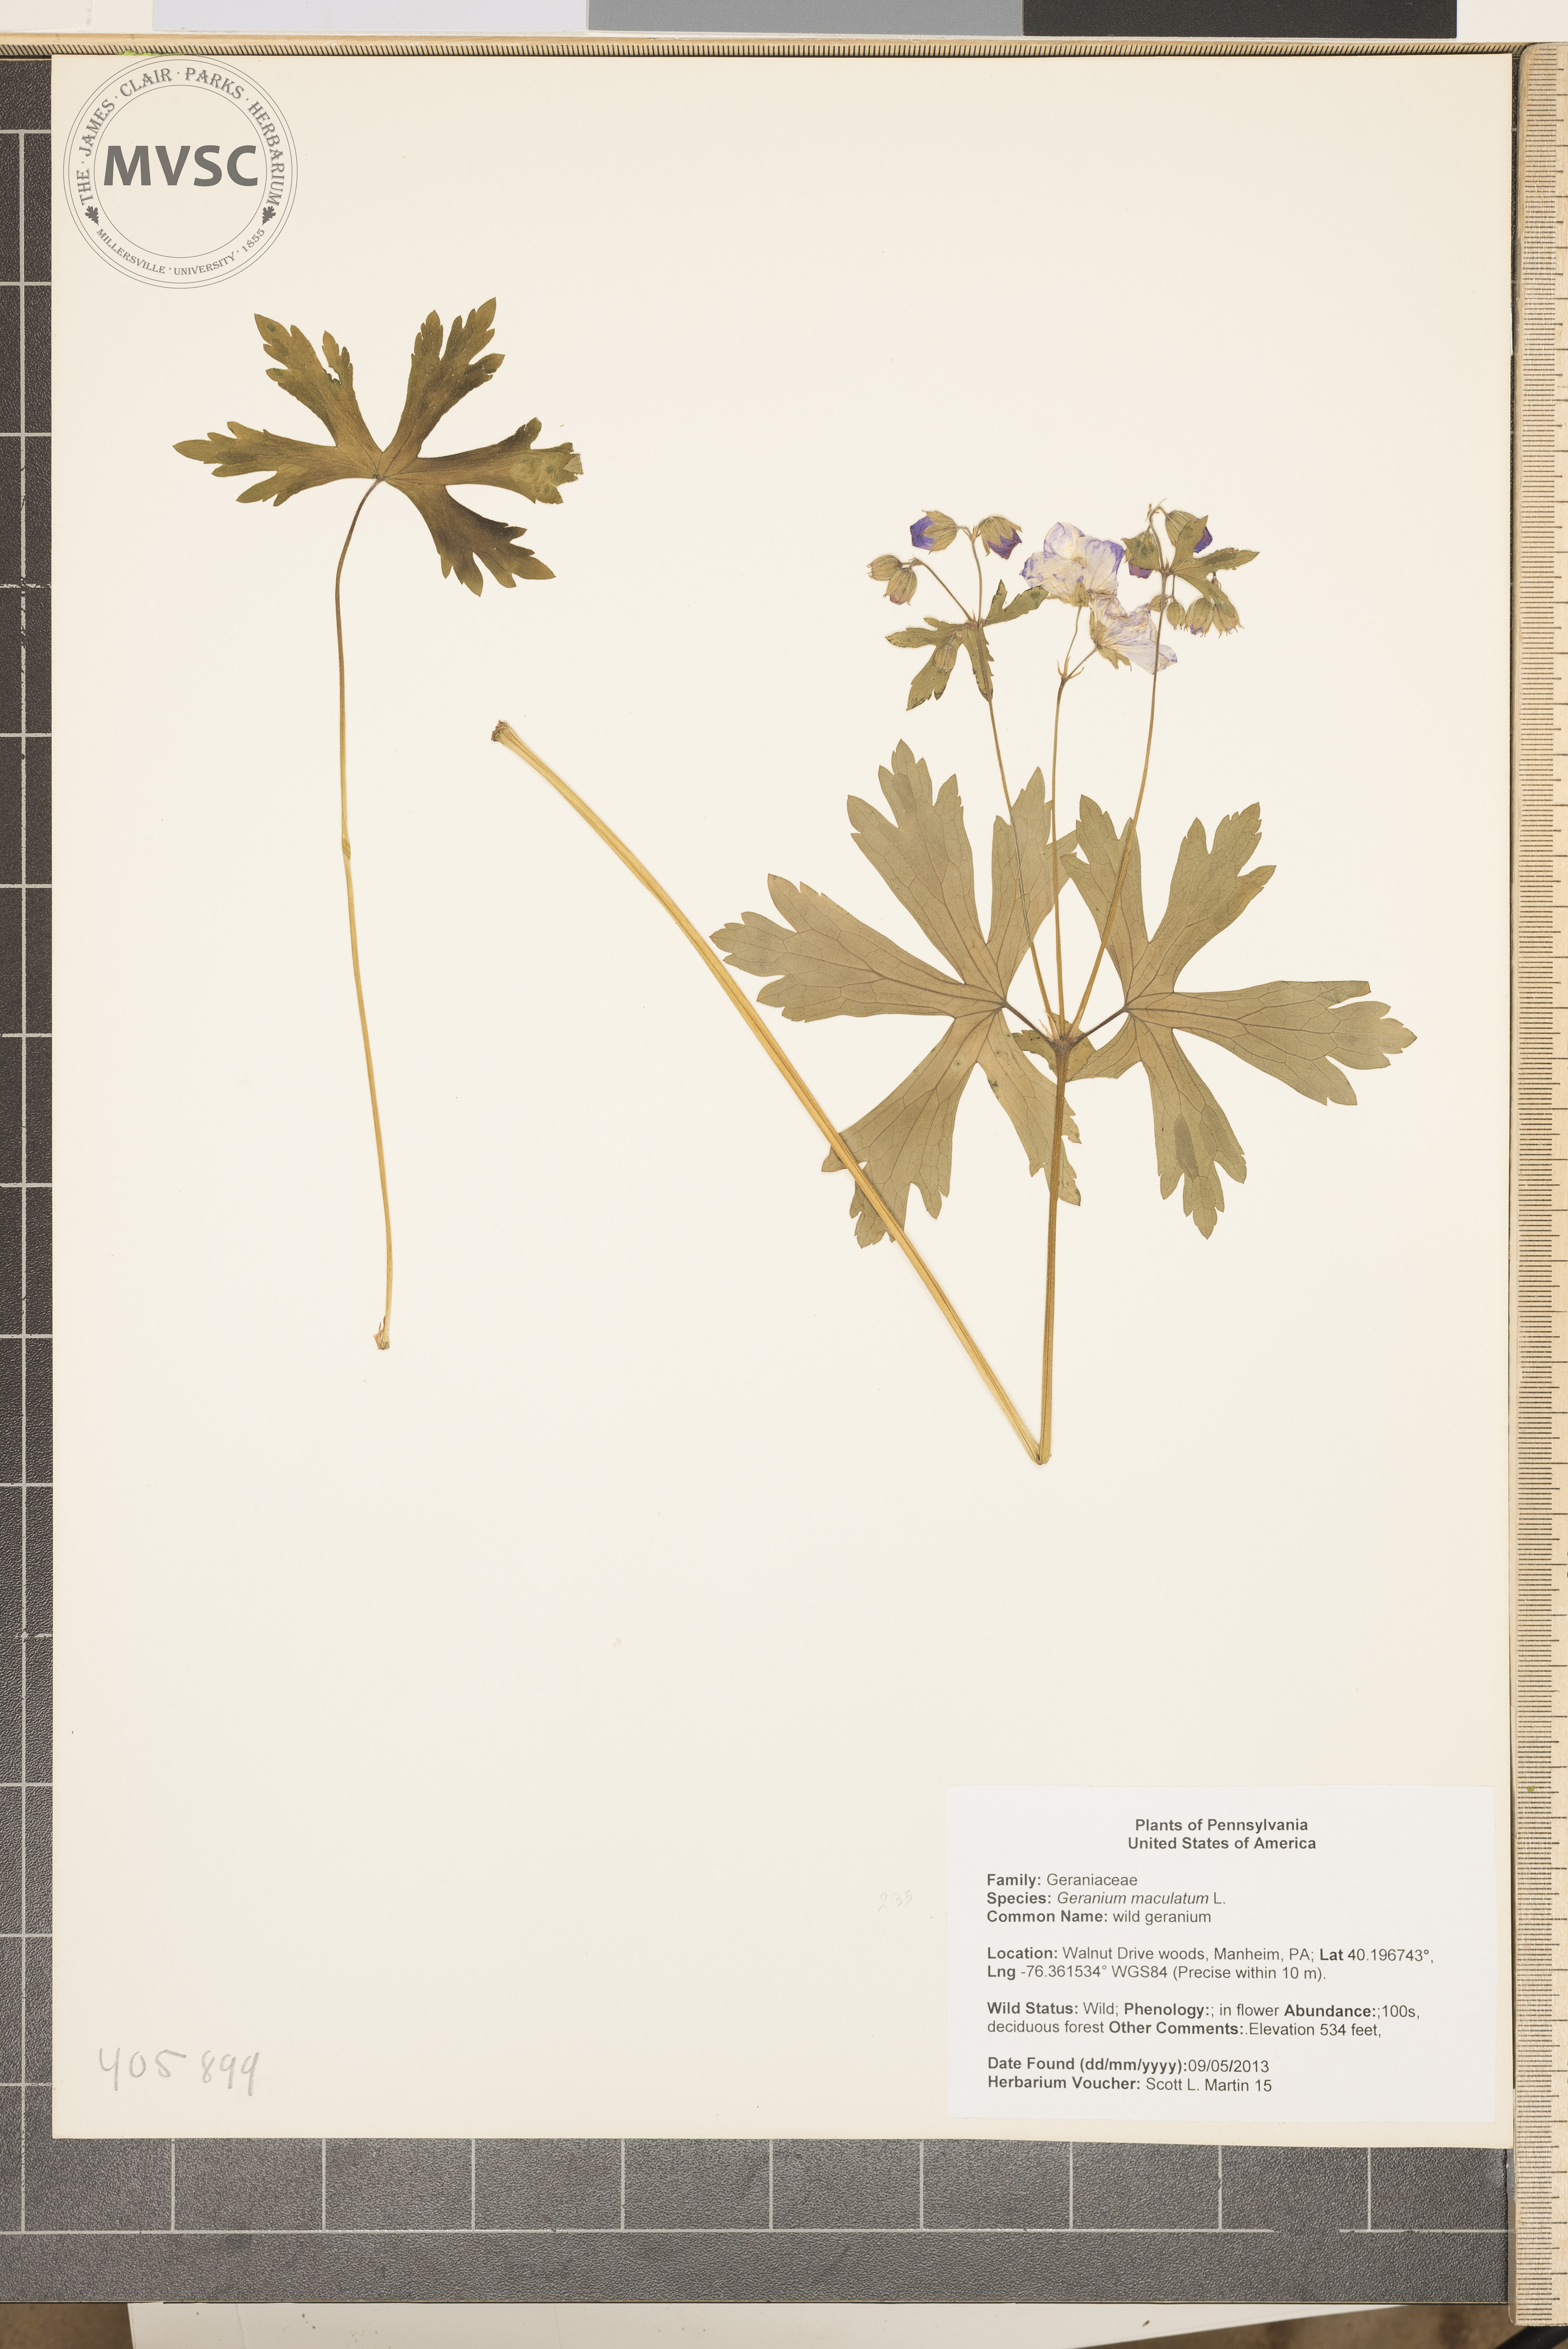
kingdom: Plantae
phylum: Tracheophyta
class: Magnoliopsida
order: Geraniales
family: Geraniaceae
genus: Geranium
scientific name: Geranium maculatum
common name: wild geranium
